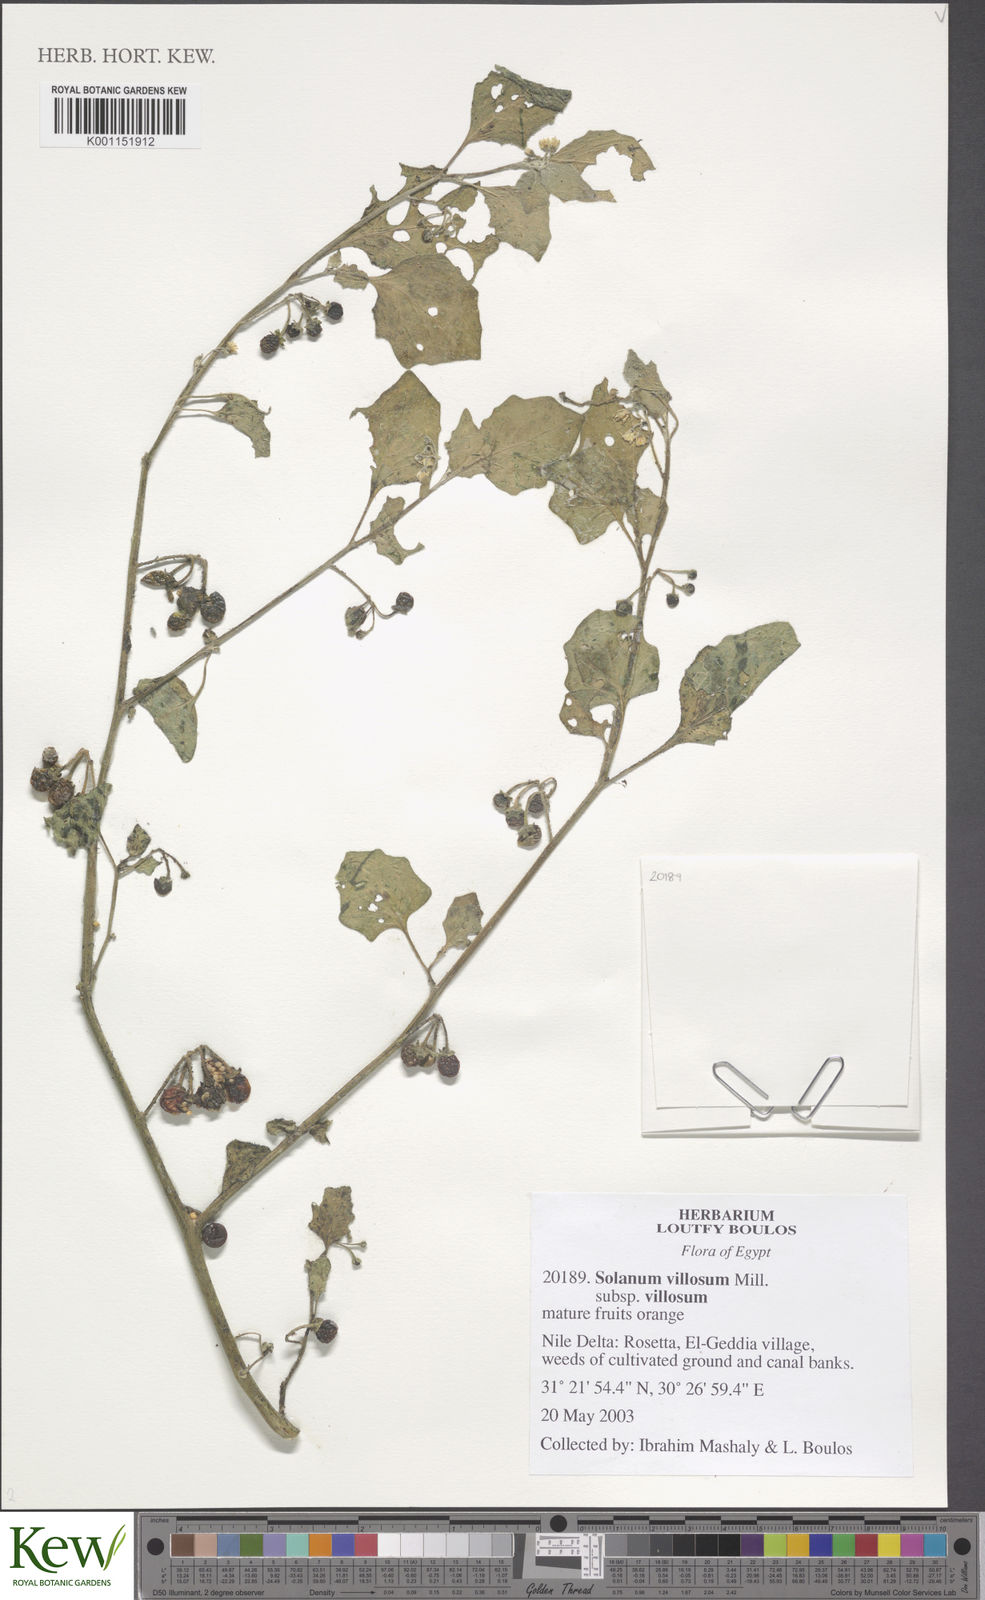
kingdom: Plantae
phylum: Tracheophyta
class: Magnoliopsida
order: Solanales
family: Solanaceae
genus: Solanum
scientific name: Solanum villosum
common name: Red nightshade
